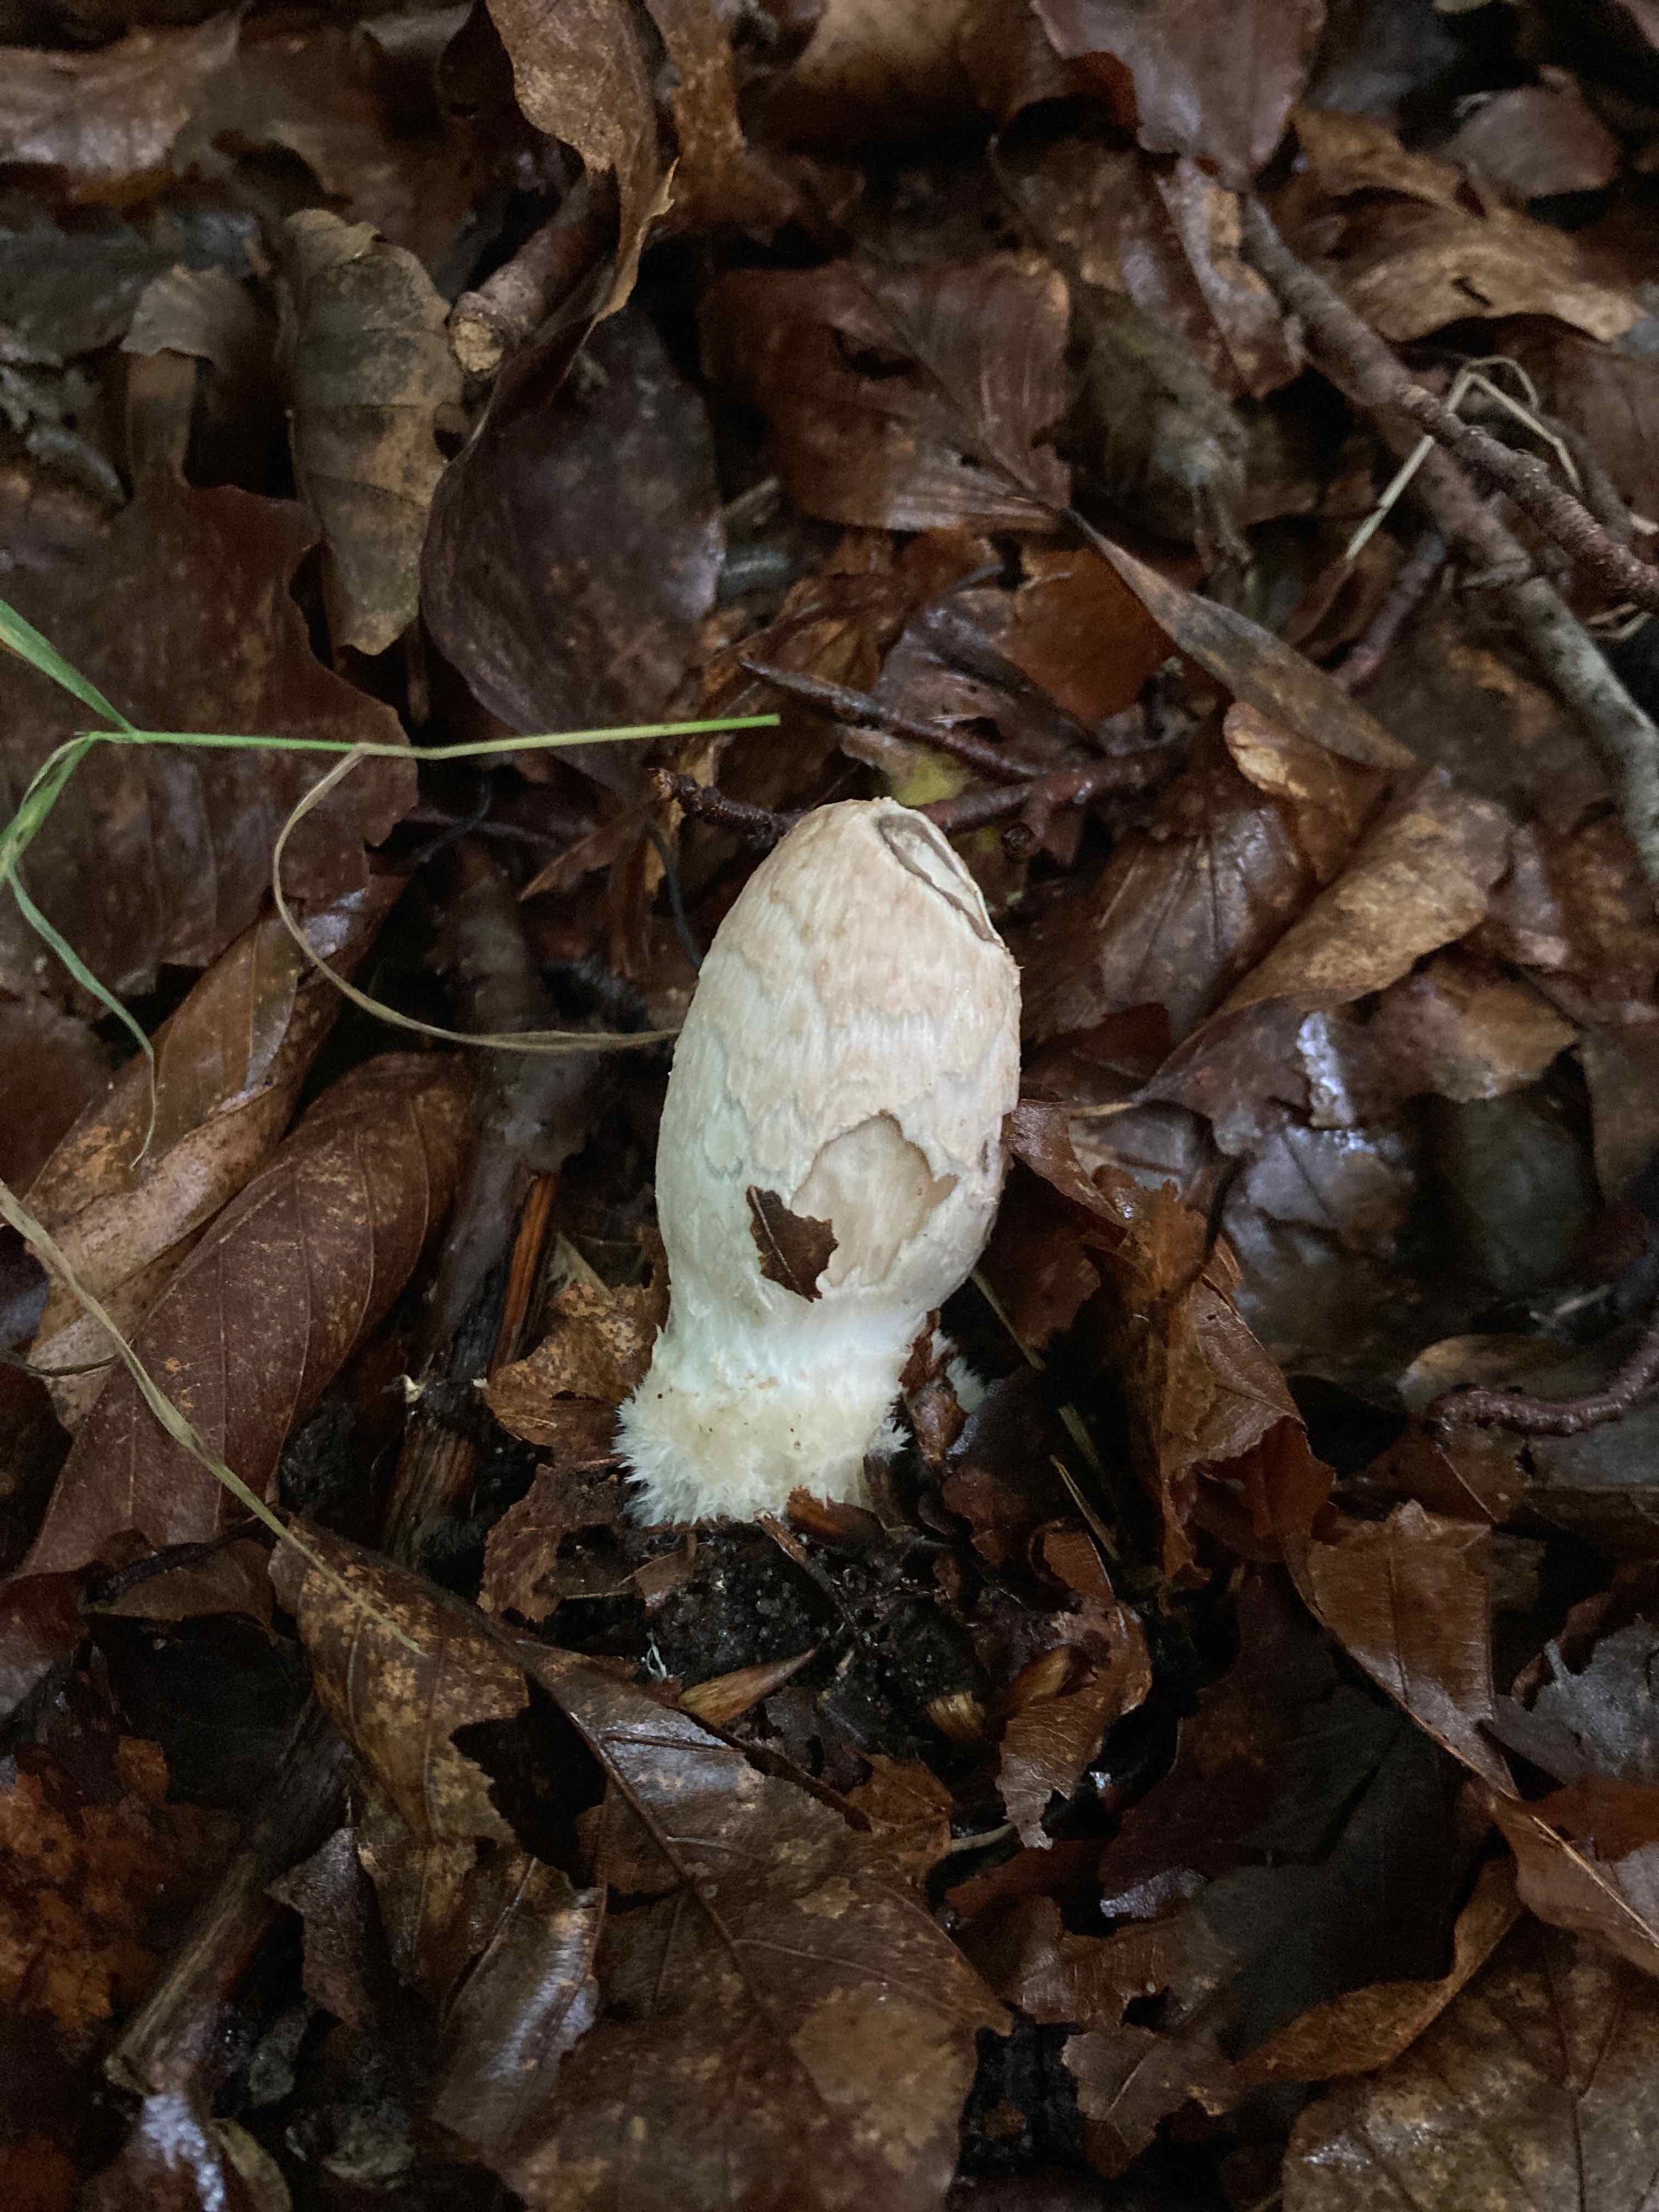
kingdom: Fungi
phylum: Basidiomycota
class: Agaricomycetes
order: Agaricales
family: Psathyrellaceae
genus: Coprinopsis
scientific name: Coprinopsis picacea
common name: skade-blækhat
